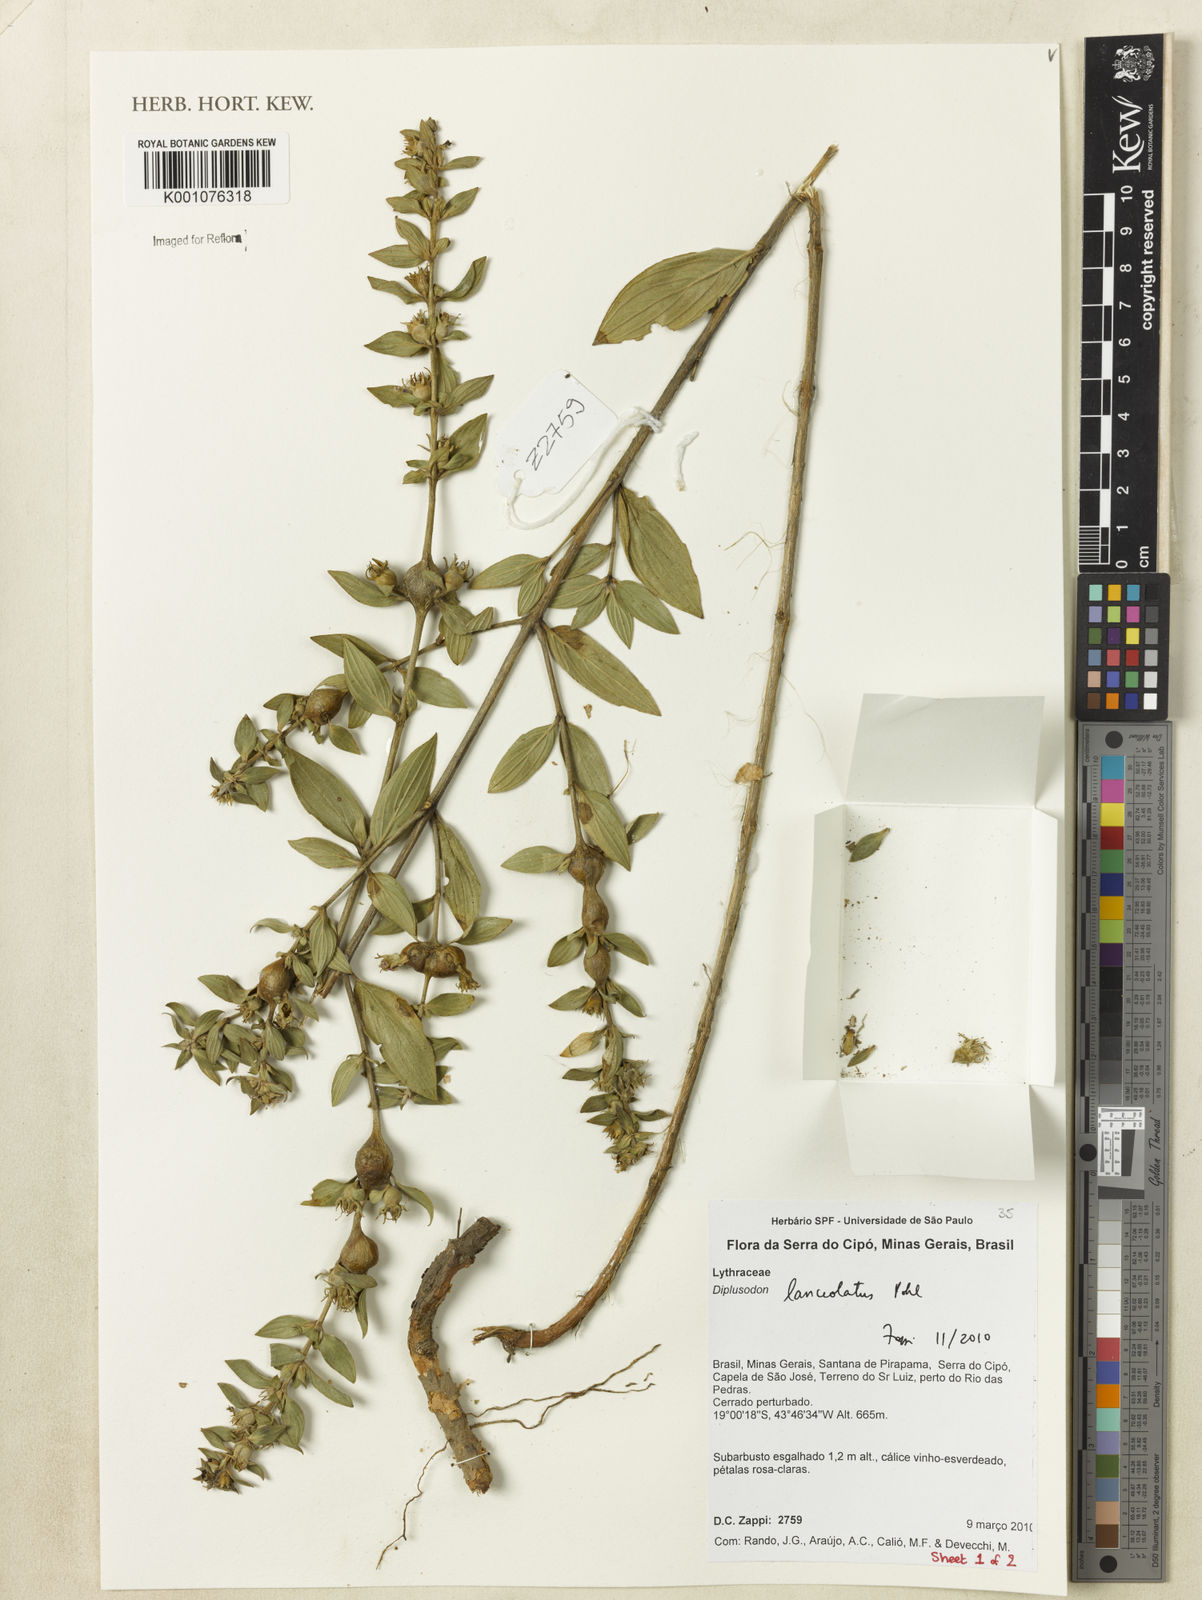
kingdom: Plantae
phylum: Tracheophyta
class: Magnoliopsida
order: Myrtales
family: Lythraceae
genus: Diplusodon
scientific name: Diplusodon lanceolatus
